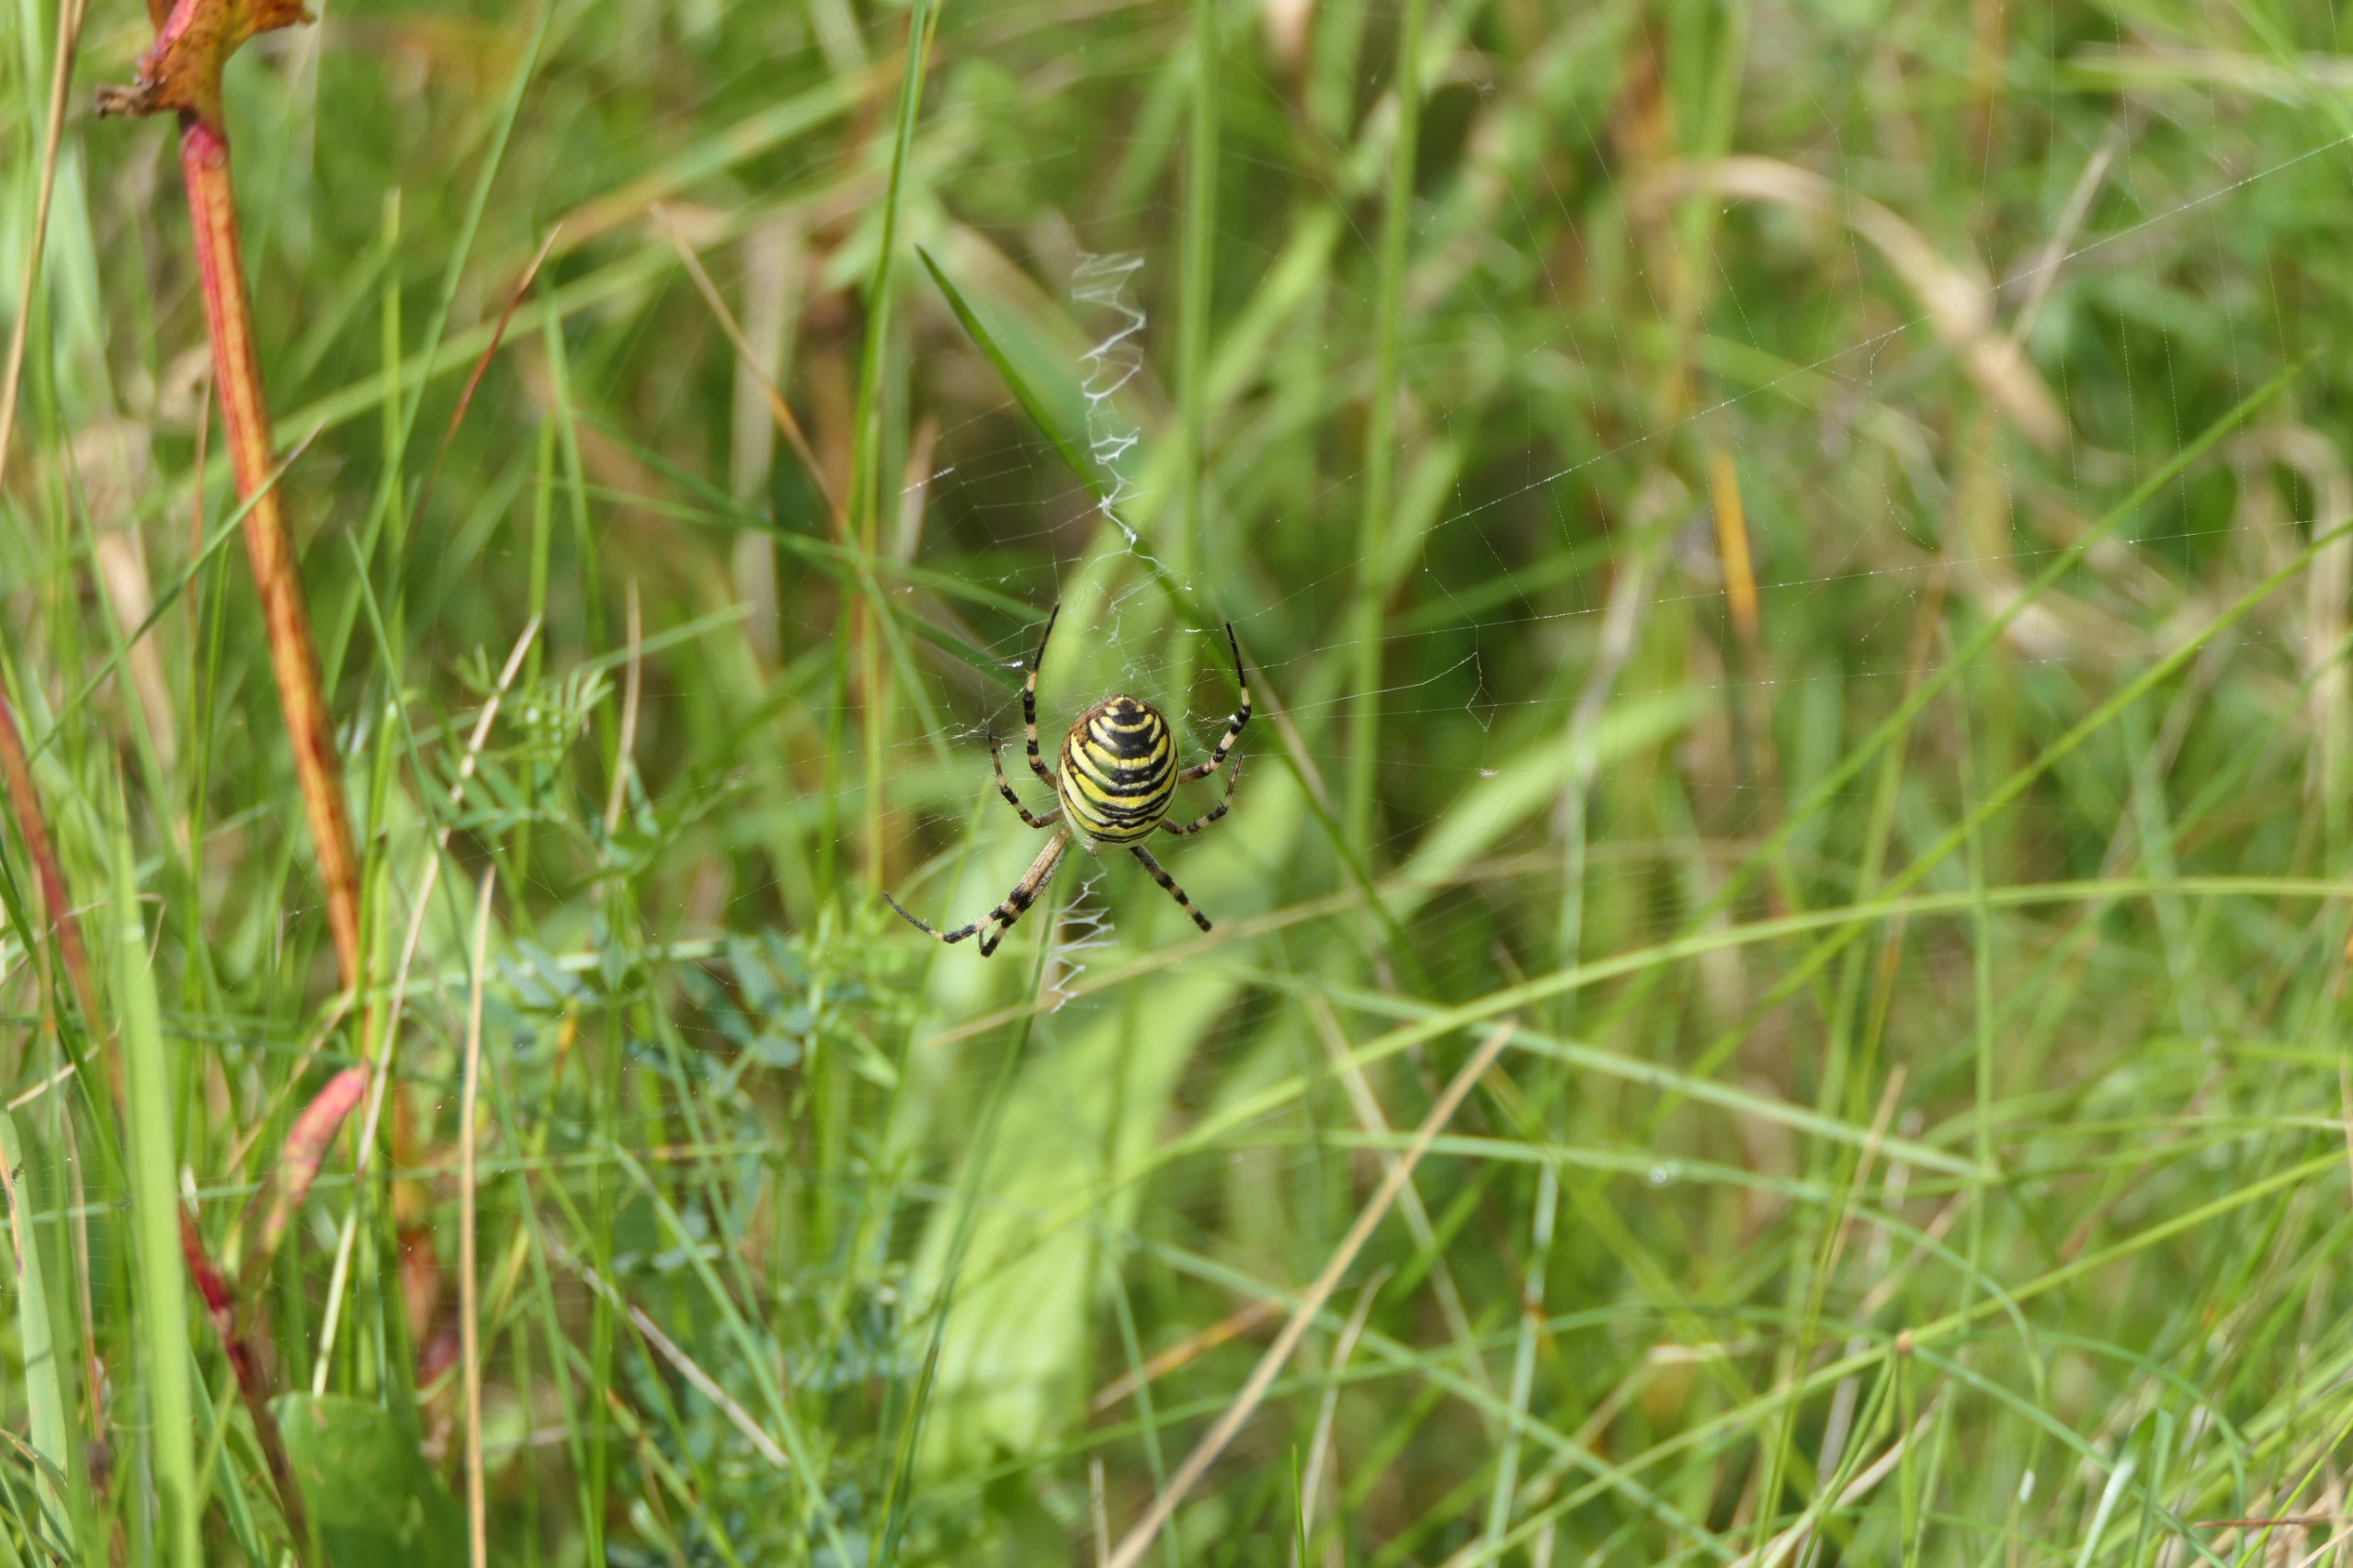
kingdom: Animalia
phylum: Arthropoda
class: Arachnida
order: Araneae
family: Araneidae
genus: Argiope
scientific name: Argiope bruennichi
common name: Hvepseedderkop
